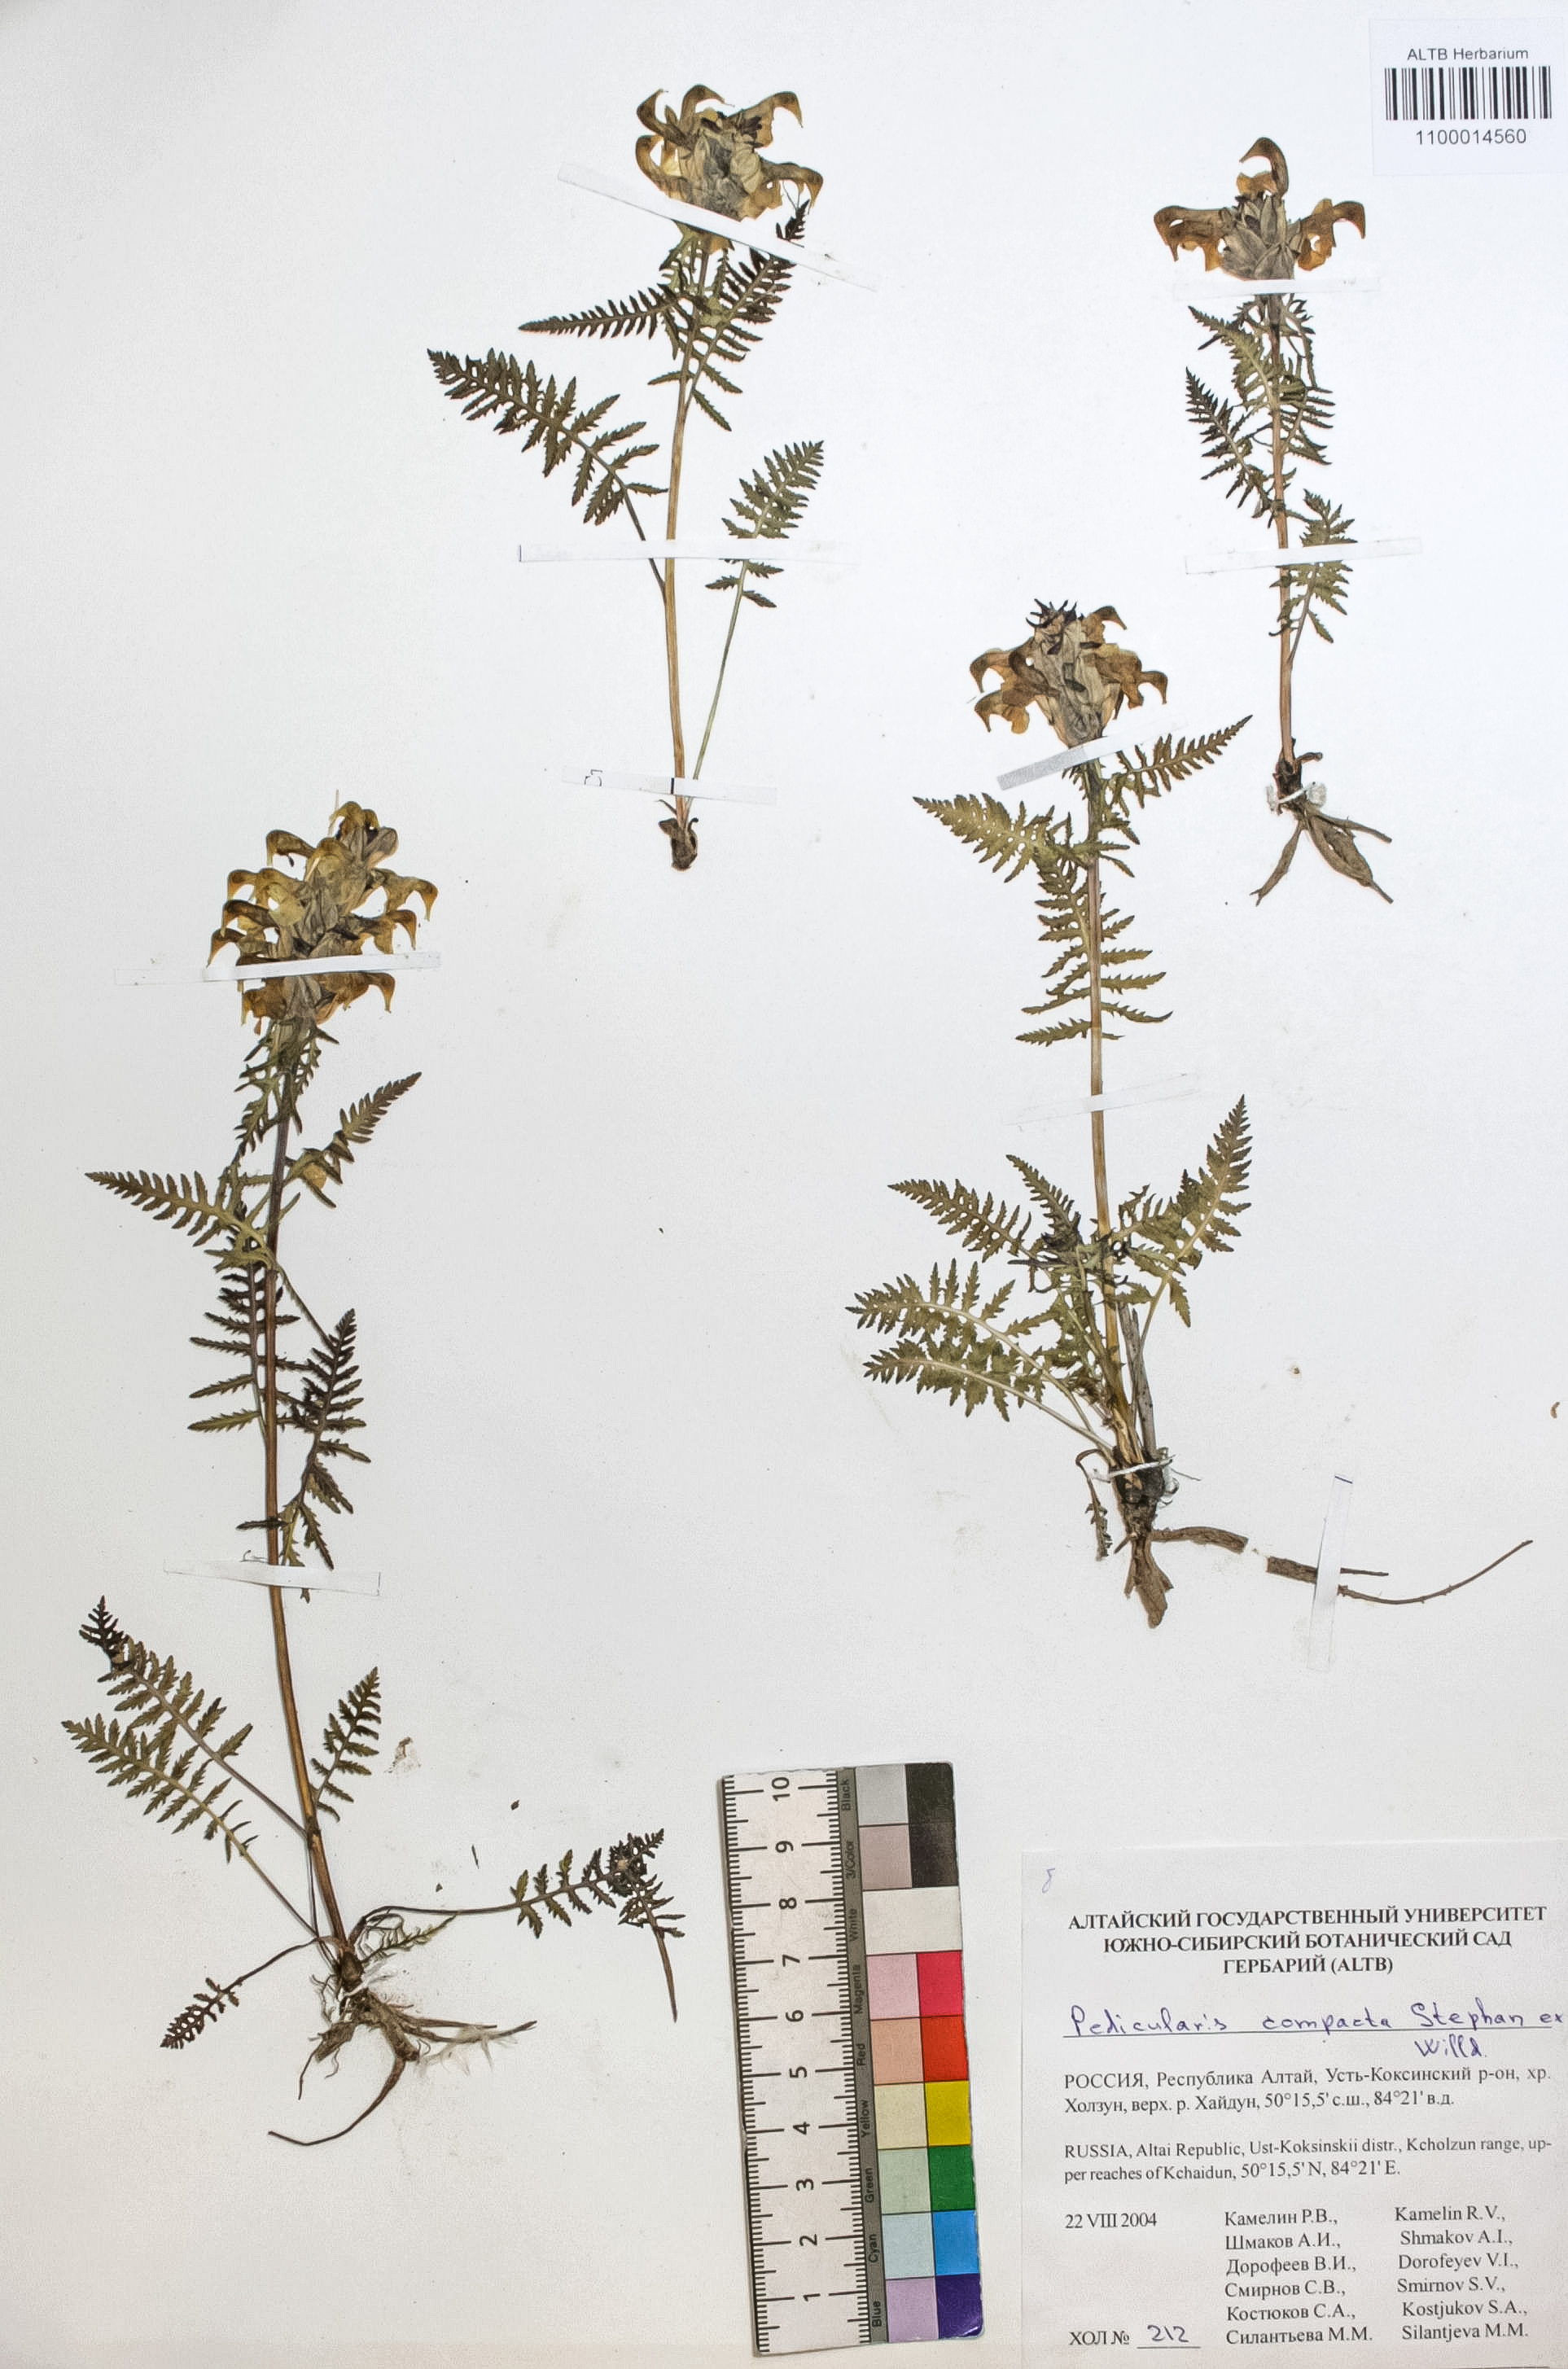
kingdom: Plantae
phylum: Tracheophyta
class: Magnoliopsida
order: Lamiales
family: Orobanchaceae
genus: Pedicularis
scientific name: Pedicularis compacta
